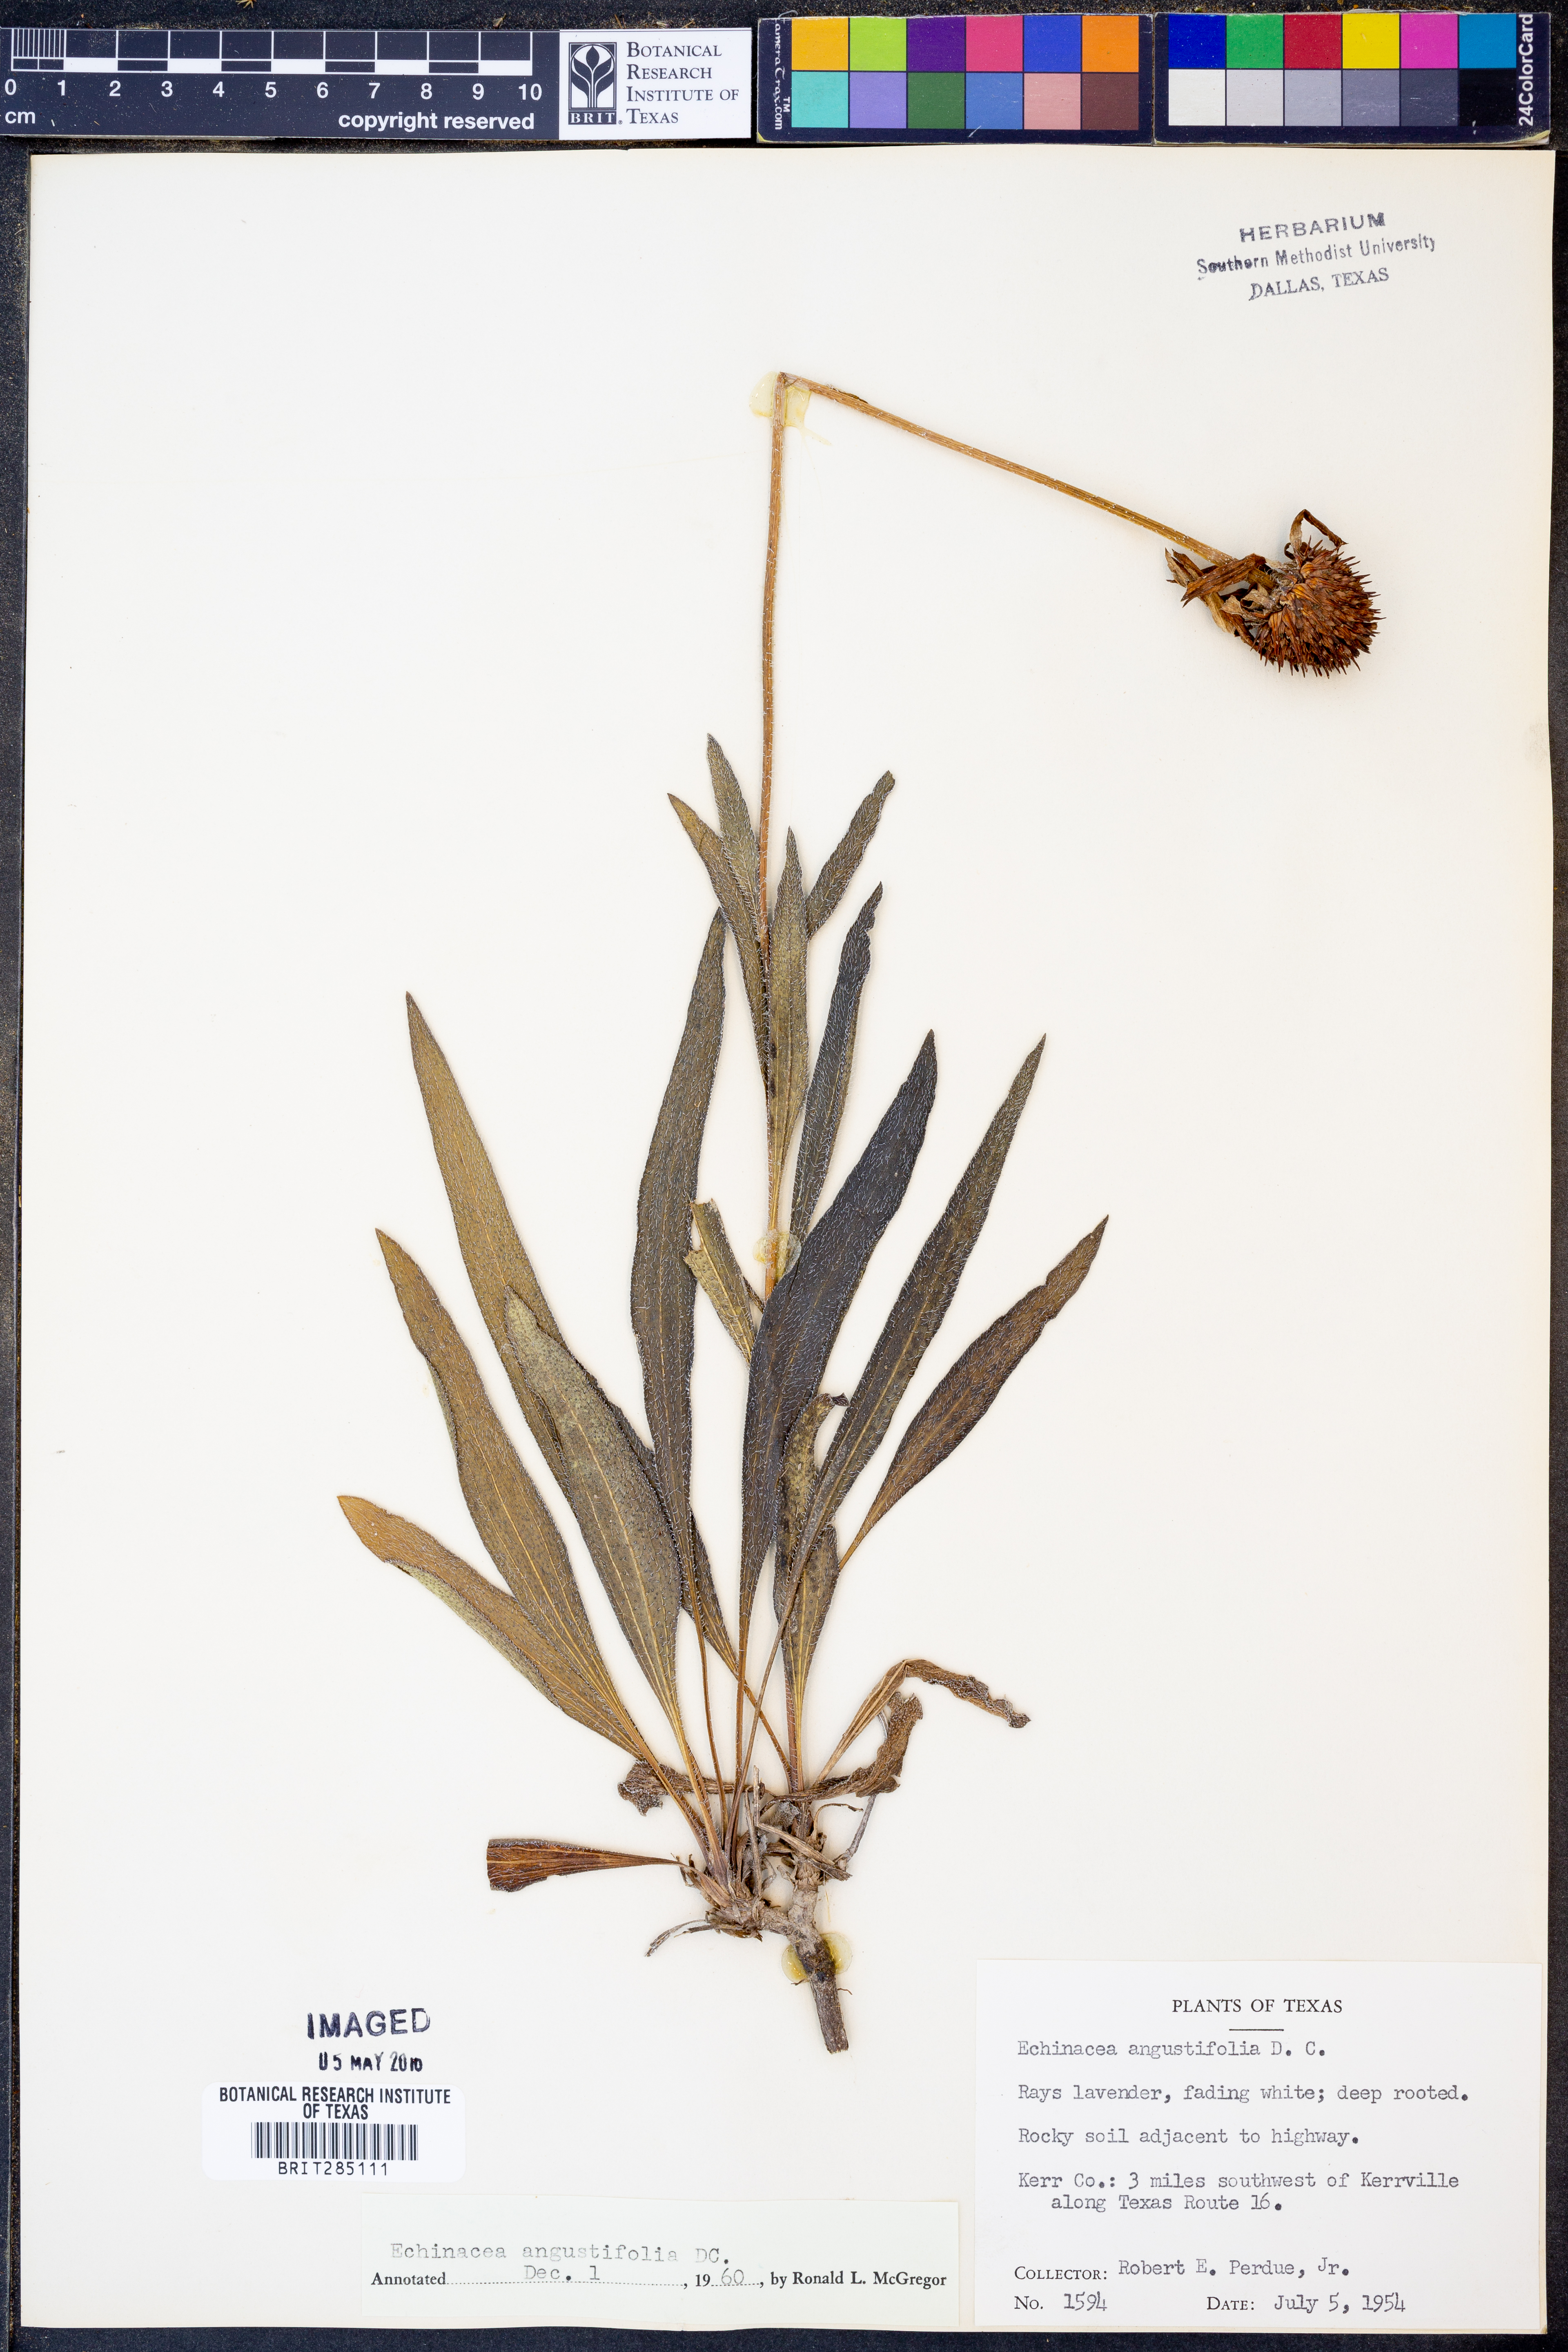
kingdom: Plantae
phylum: Tracheophyta
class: Magnoliopsida
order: Asterales
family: Asteraceae
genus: Echinacea
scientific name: Echinacea angustifolia
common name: Black-sampson echinacea
